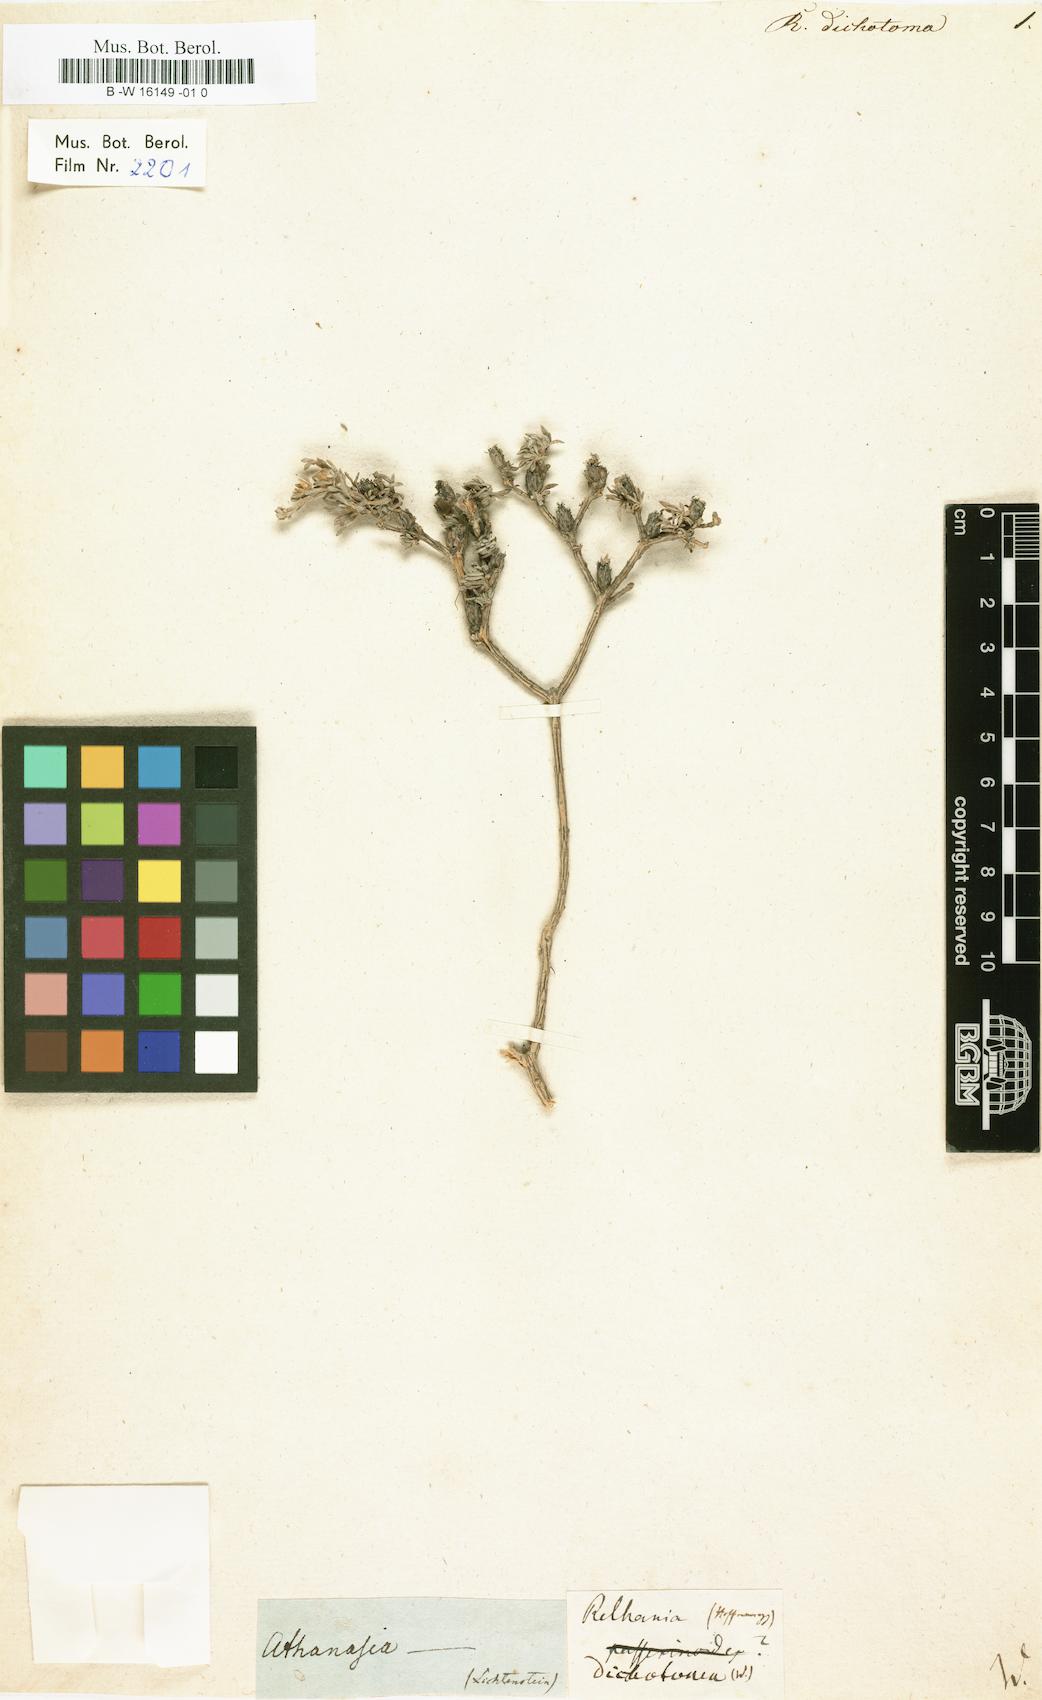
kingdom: Plantae
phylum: Tracheophyta
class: Magnoliopsida
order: Asterales
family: Asteraceae
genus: Oedera
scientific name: Oedera humilis
